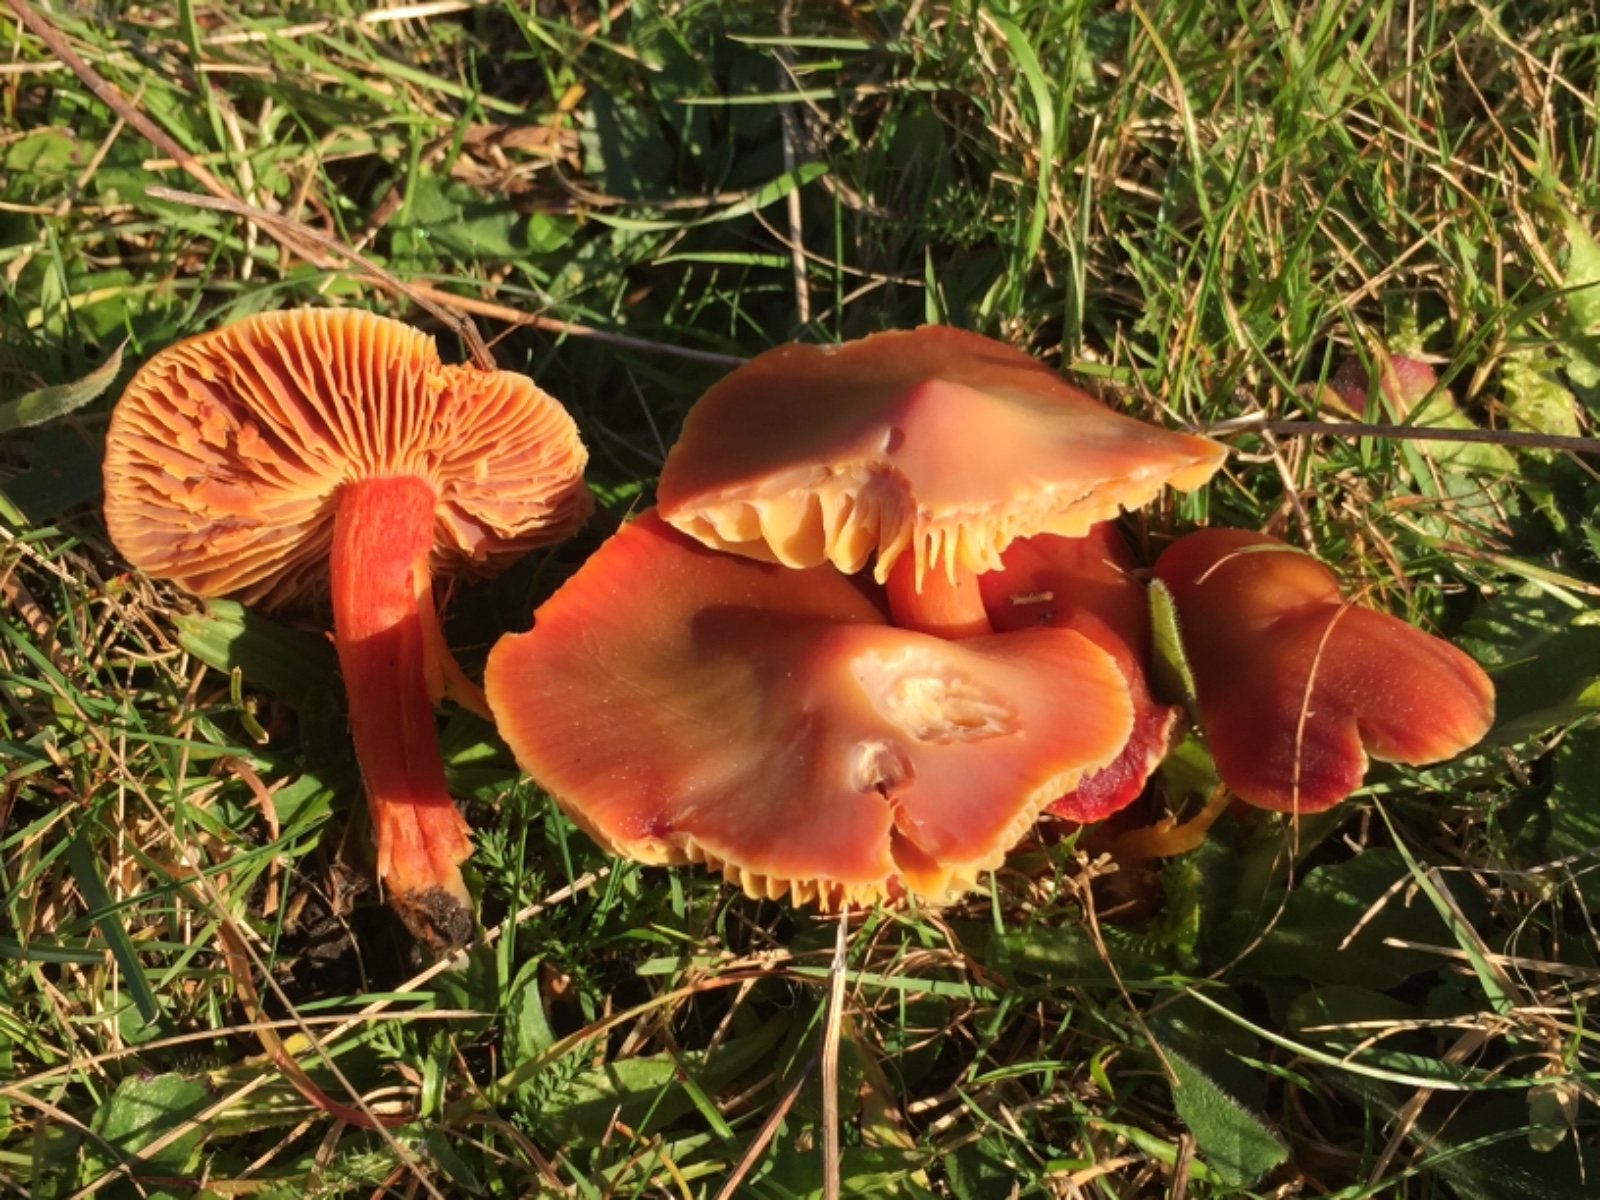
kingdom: Fungi
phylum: Basidiomycota
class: Agaricomycetes
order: Agaricales
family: Hygrophoraceae
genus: Hygrocybe
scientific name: Hygrocybe punicea
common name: skarlagen-vokshat
